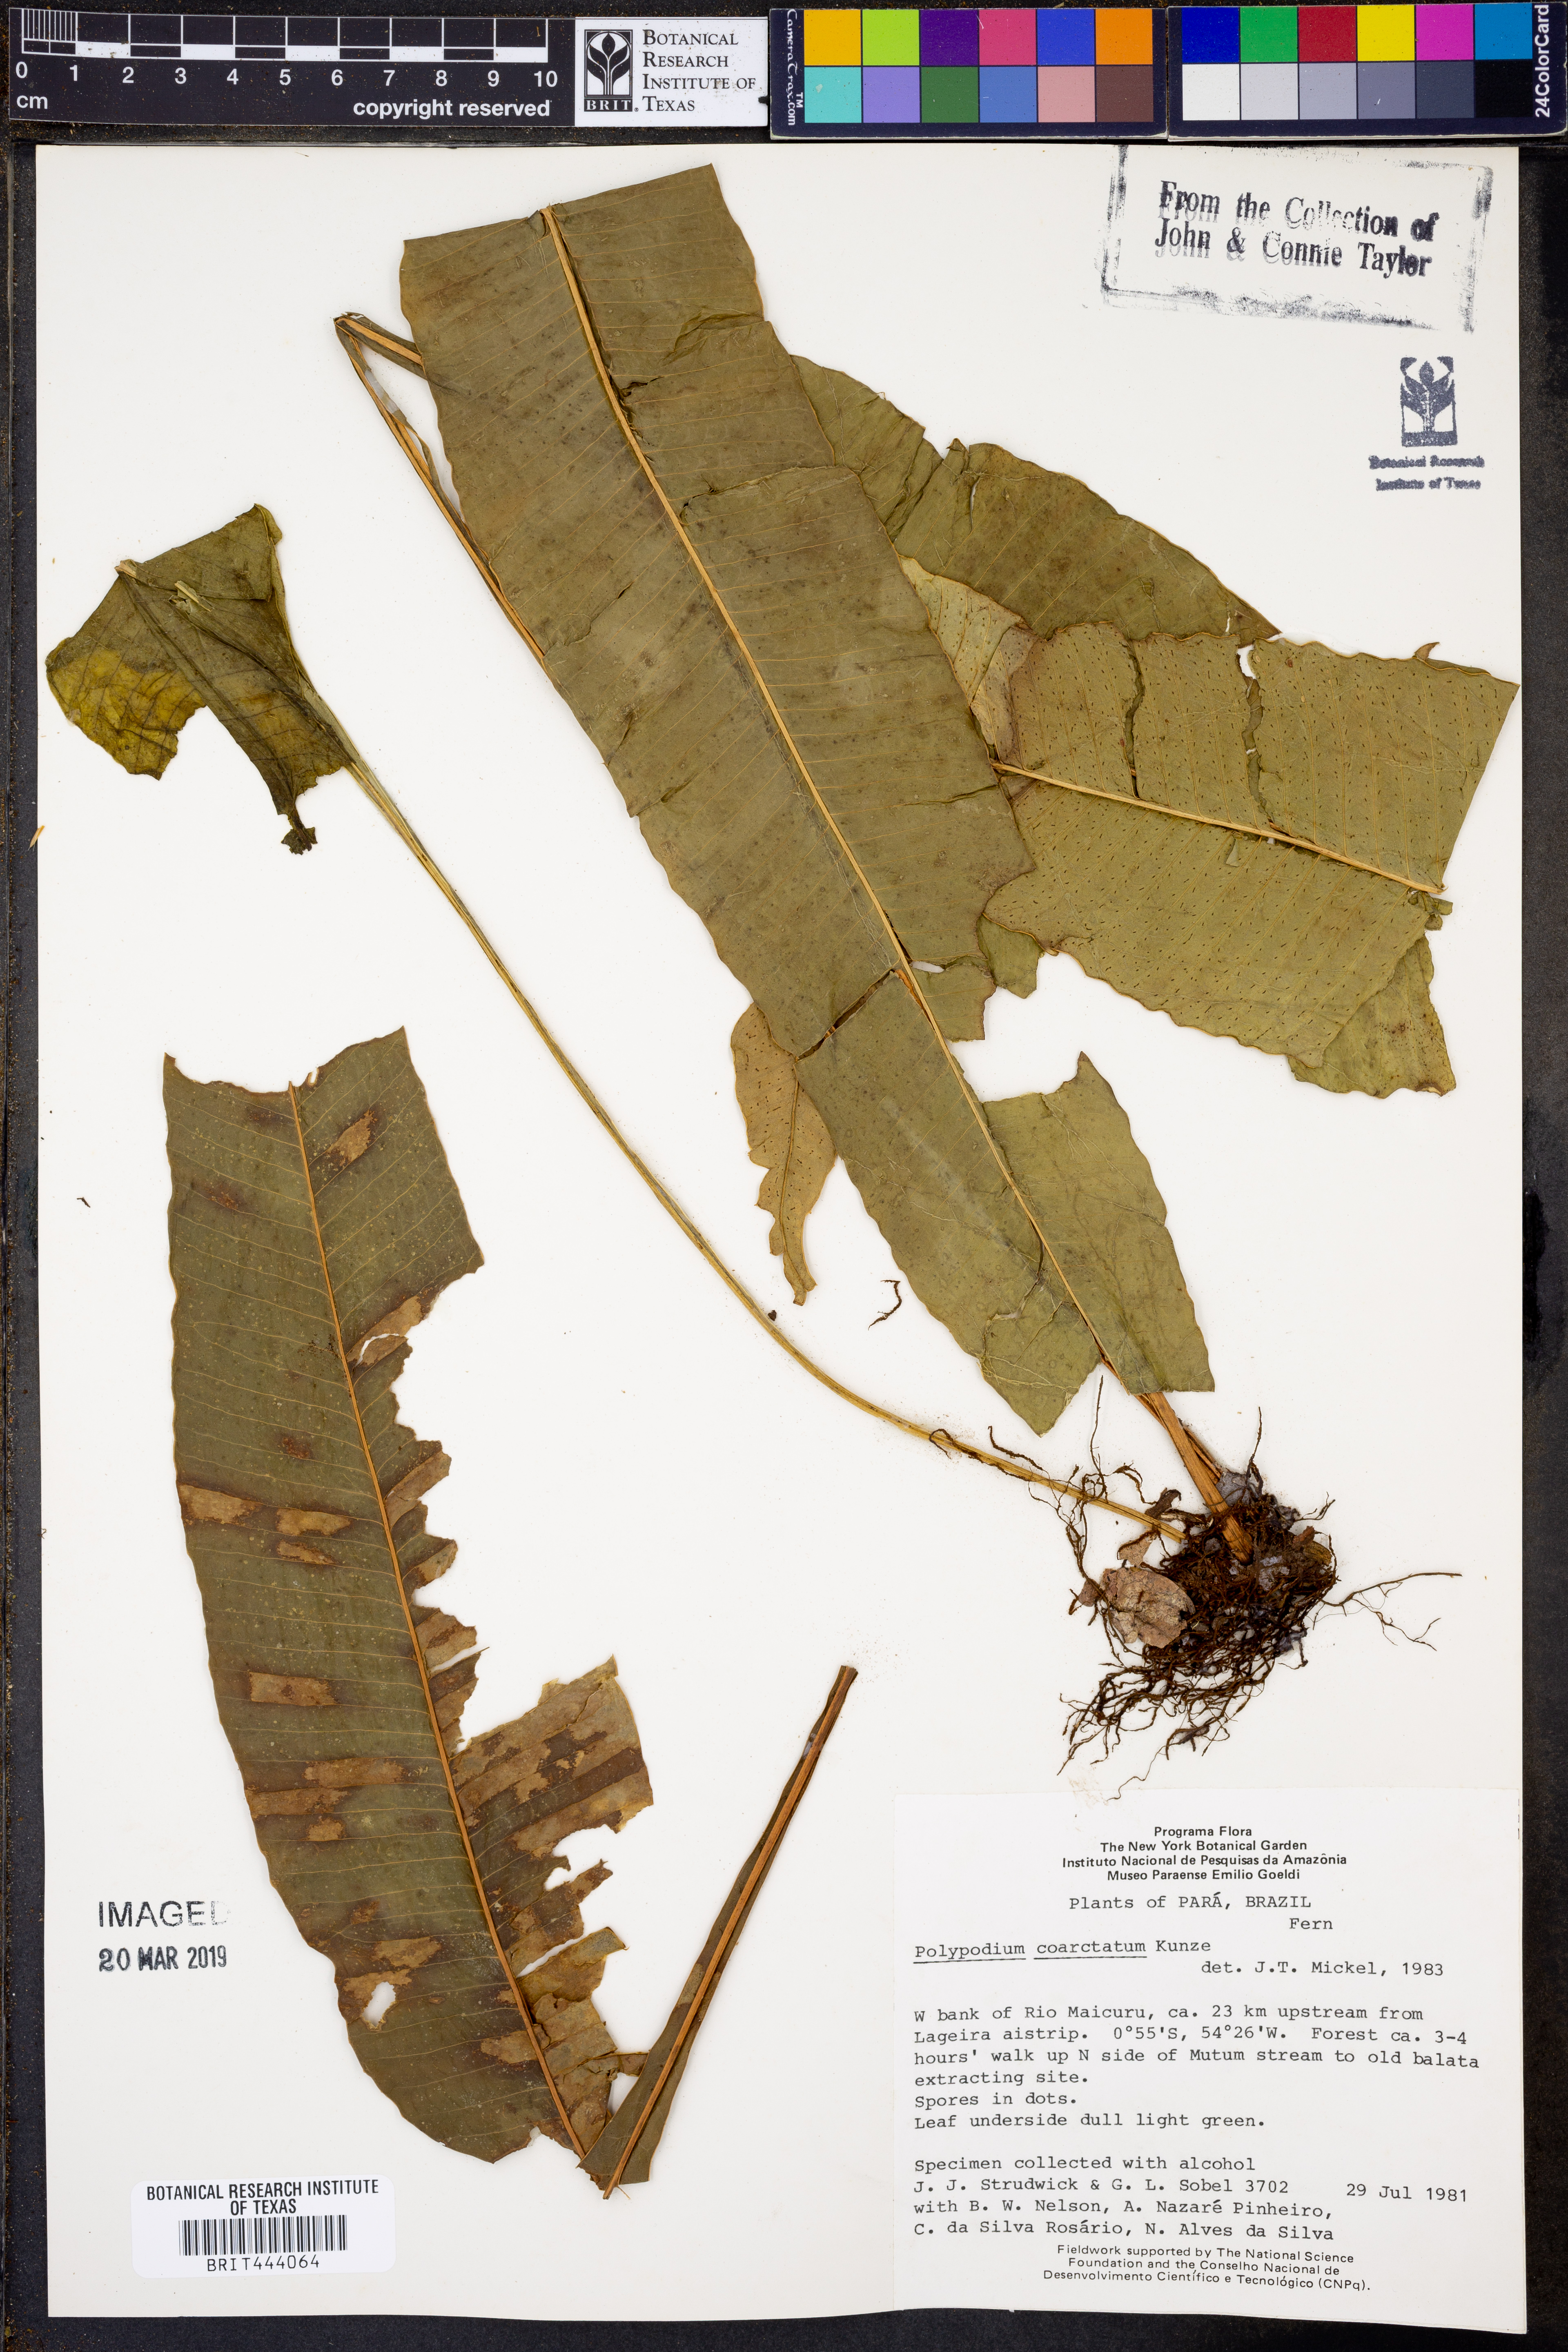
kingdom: Plantae
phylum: Tracheophyta
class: Polypodiopsida
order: Polypodiales
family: Polypodiaceae
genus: Campyloneurum
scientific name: Campyloneurum coarctatum
